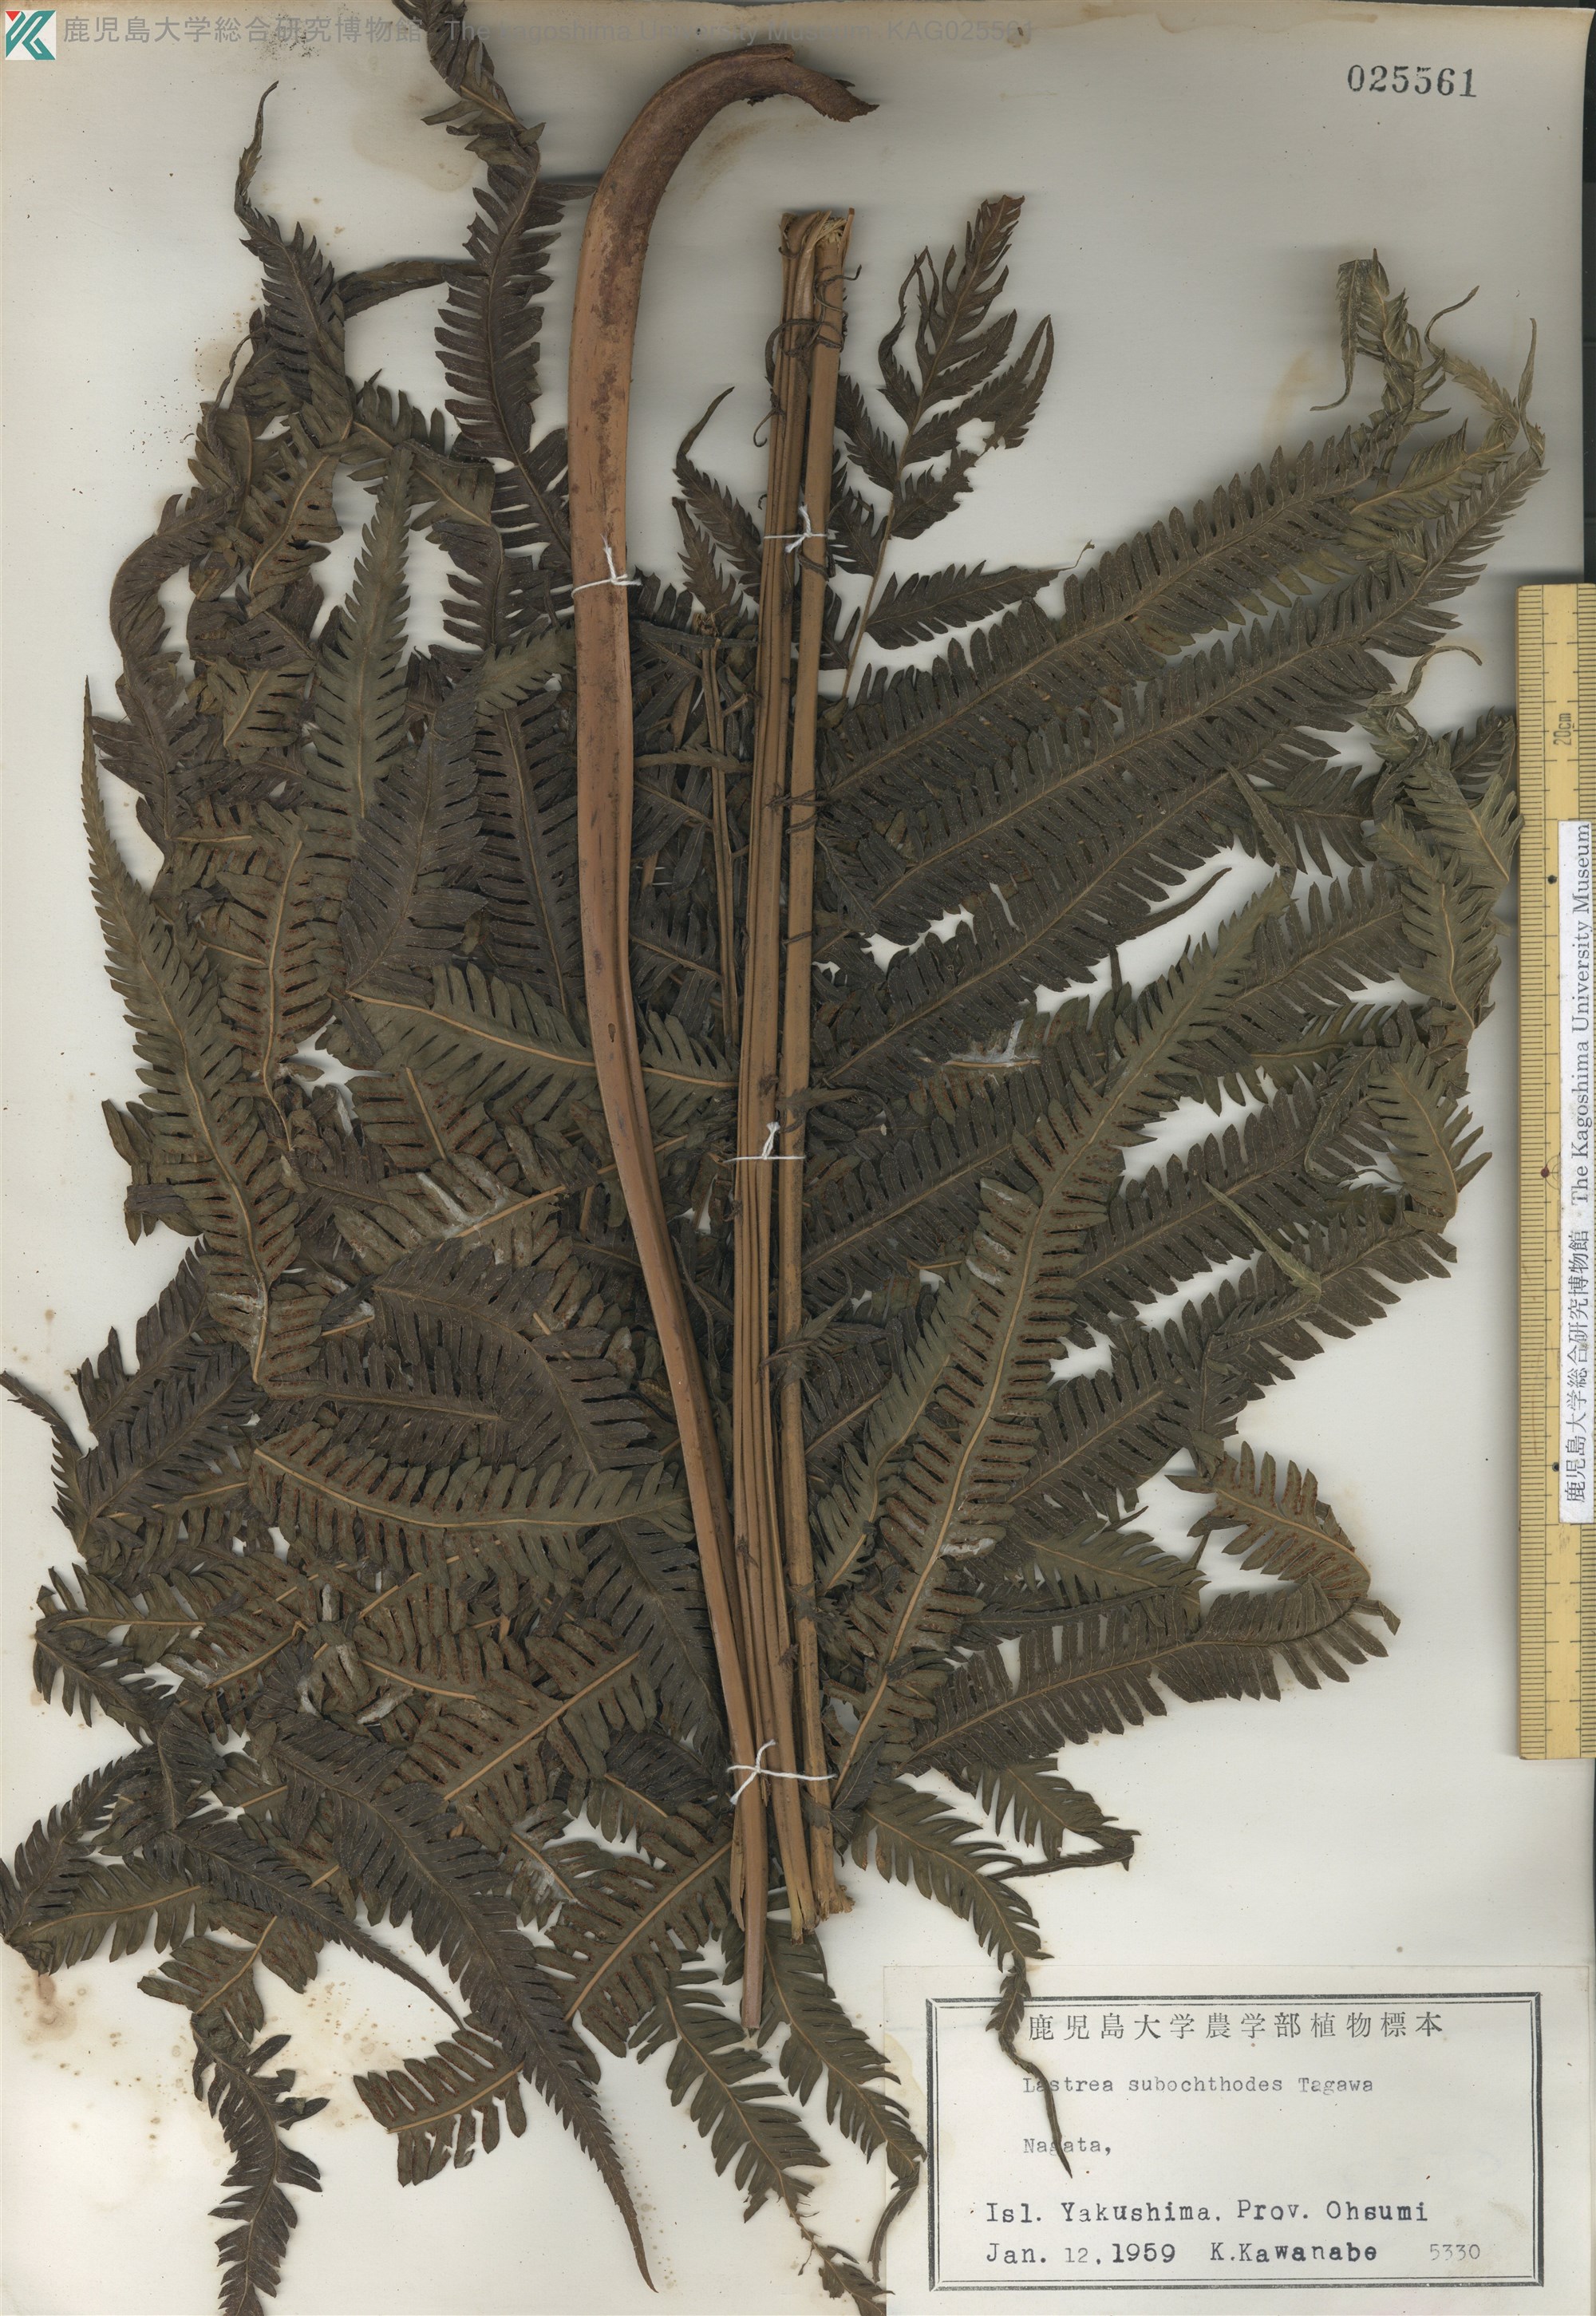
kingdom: Plantae
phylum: Tracheophyta
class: Polypodiopsida
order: Polypodiales
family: Thelypteridaceae
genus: Pseudocyclosorus
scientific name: Pseudocyclosorus esquirolii
